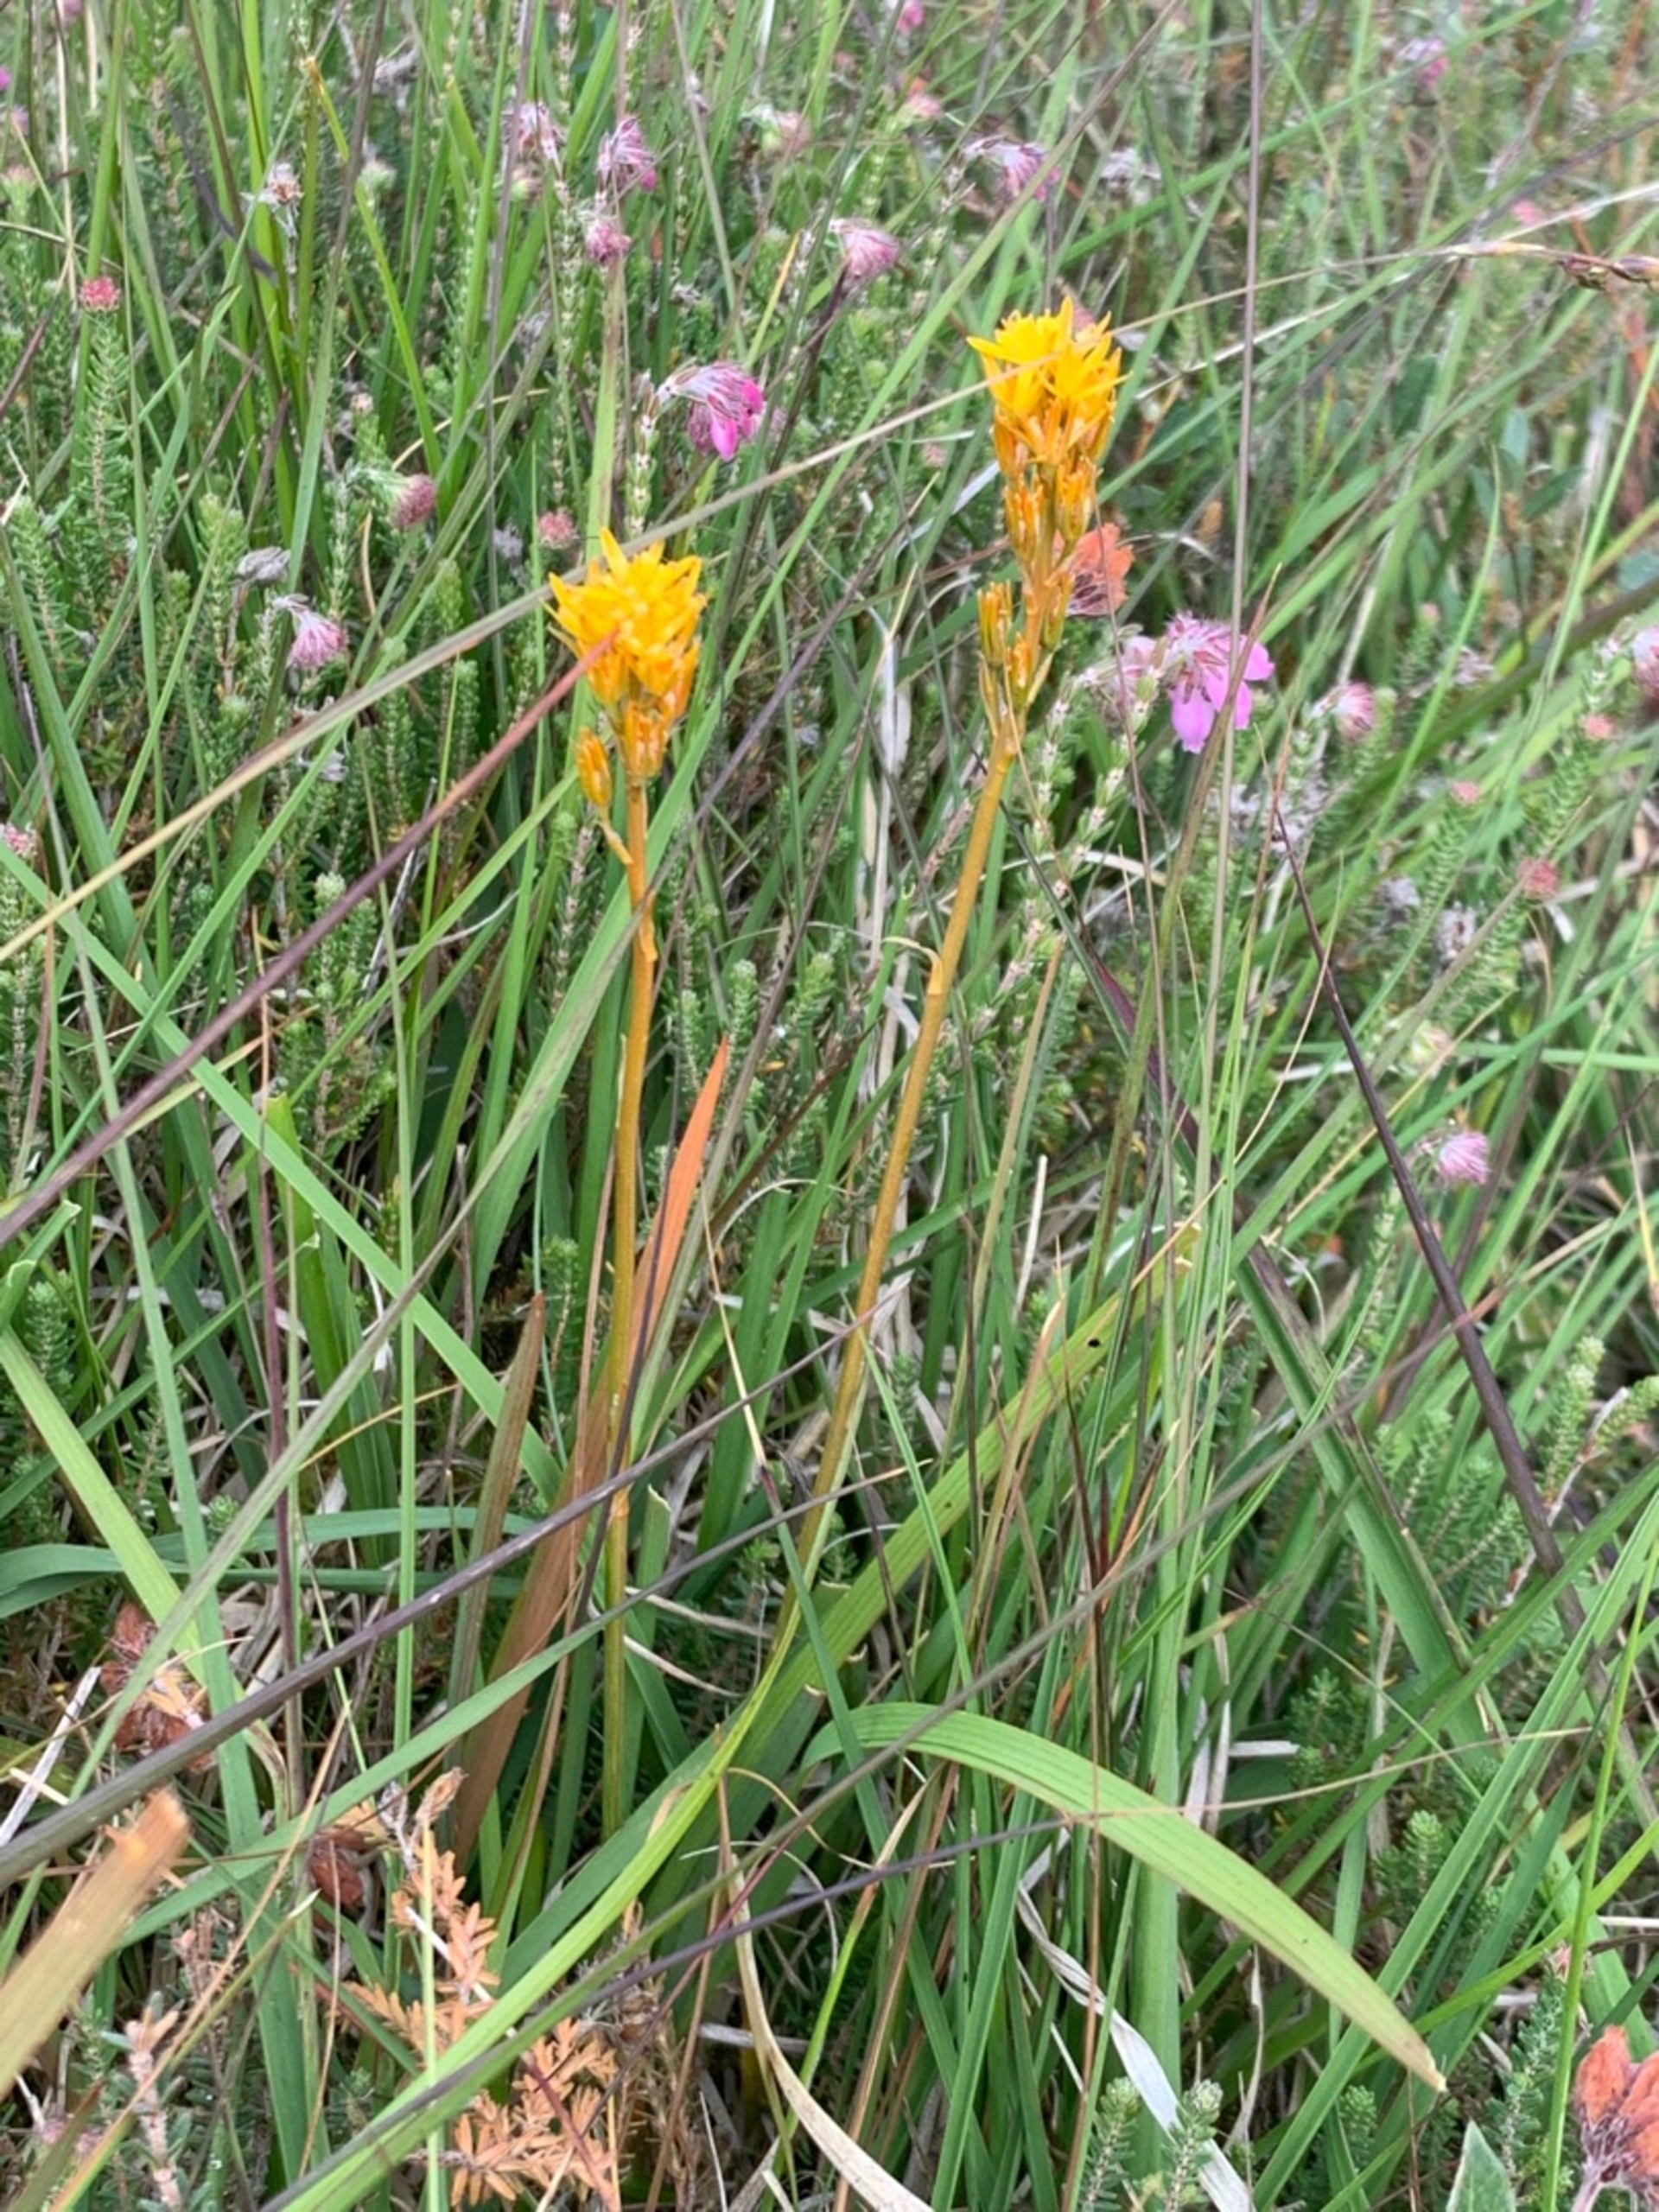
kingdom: Plantae
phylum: Tracheophyta
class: Liliopsida
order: Dioscoreales
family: Nartheciaceae
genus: Narthecium
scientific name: Narthecium ossifragum
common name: Benbræk
